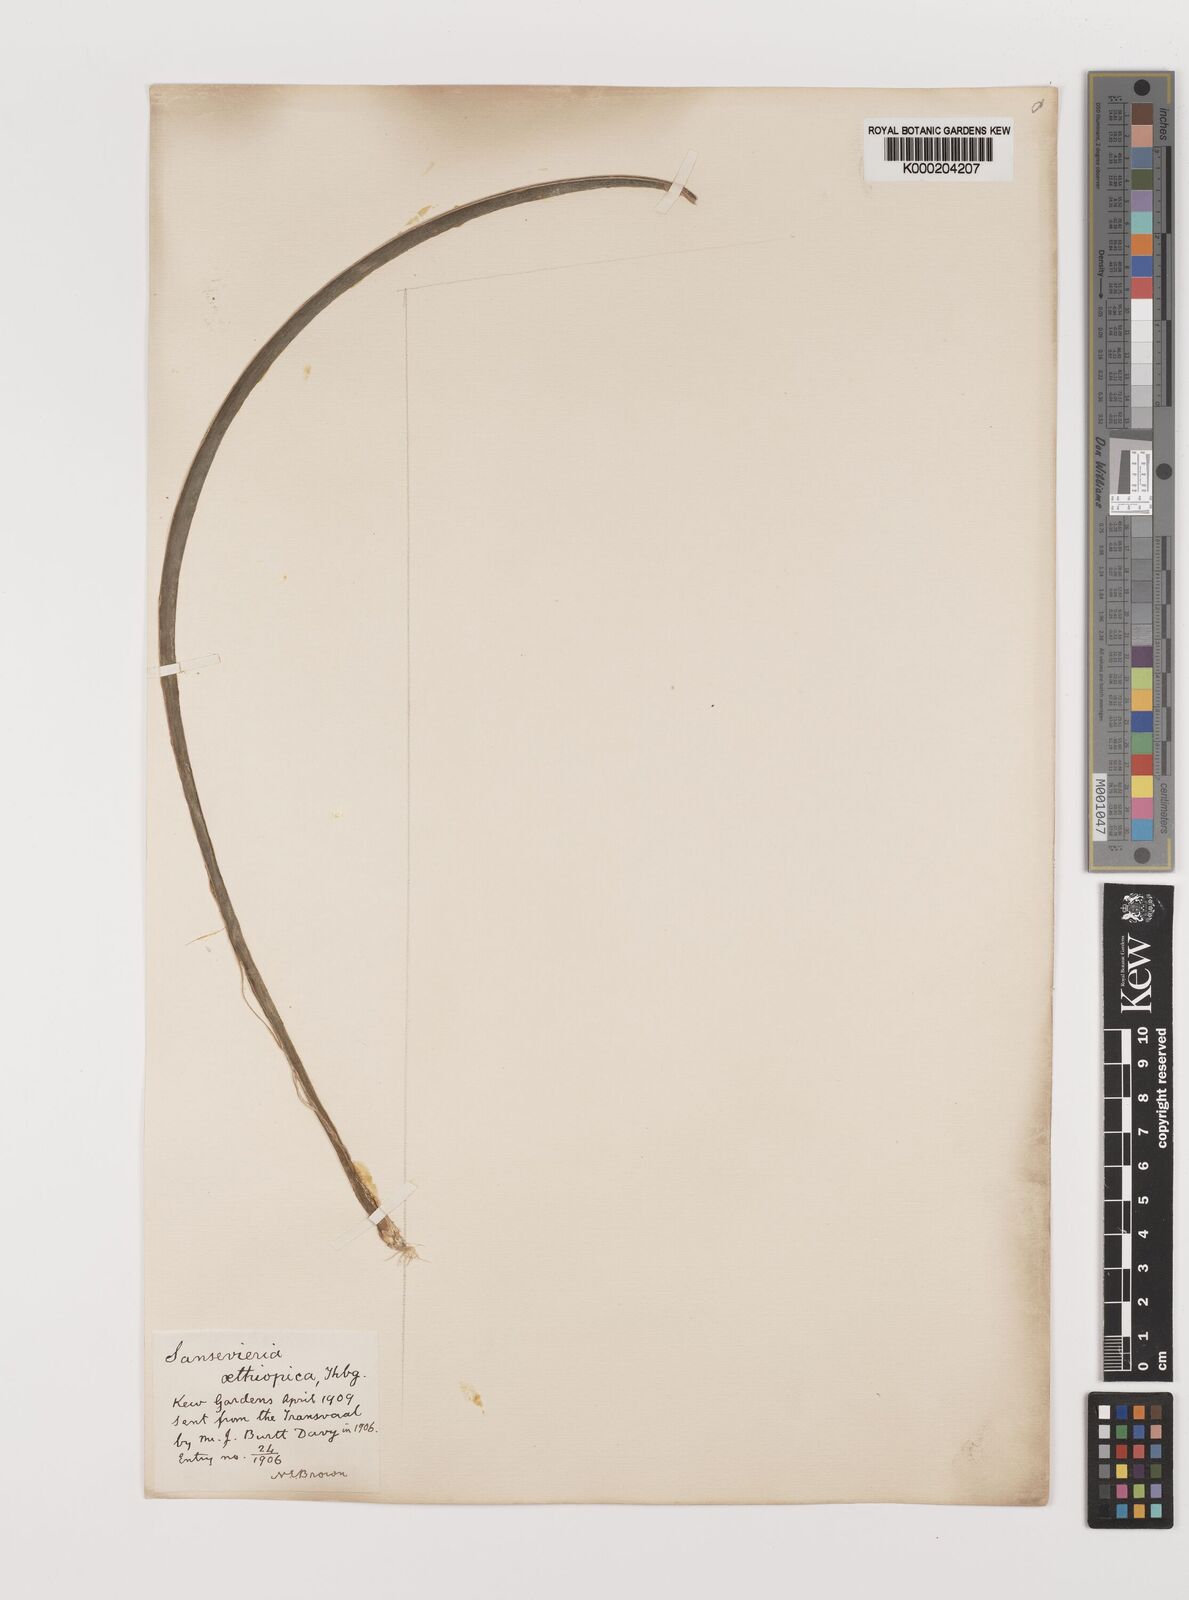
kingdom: Plantae
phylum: Tracheophyta
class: Liliopsida
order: Asparagales
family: Asparagaceae
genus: Dracaena
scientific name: Dracaena aethiopica
